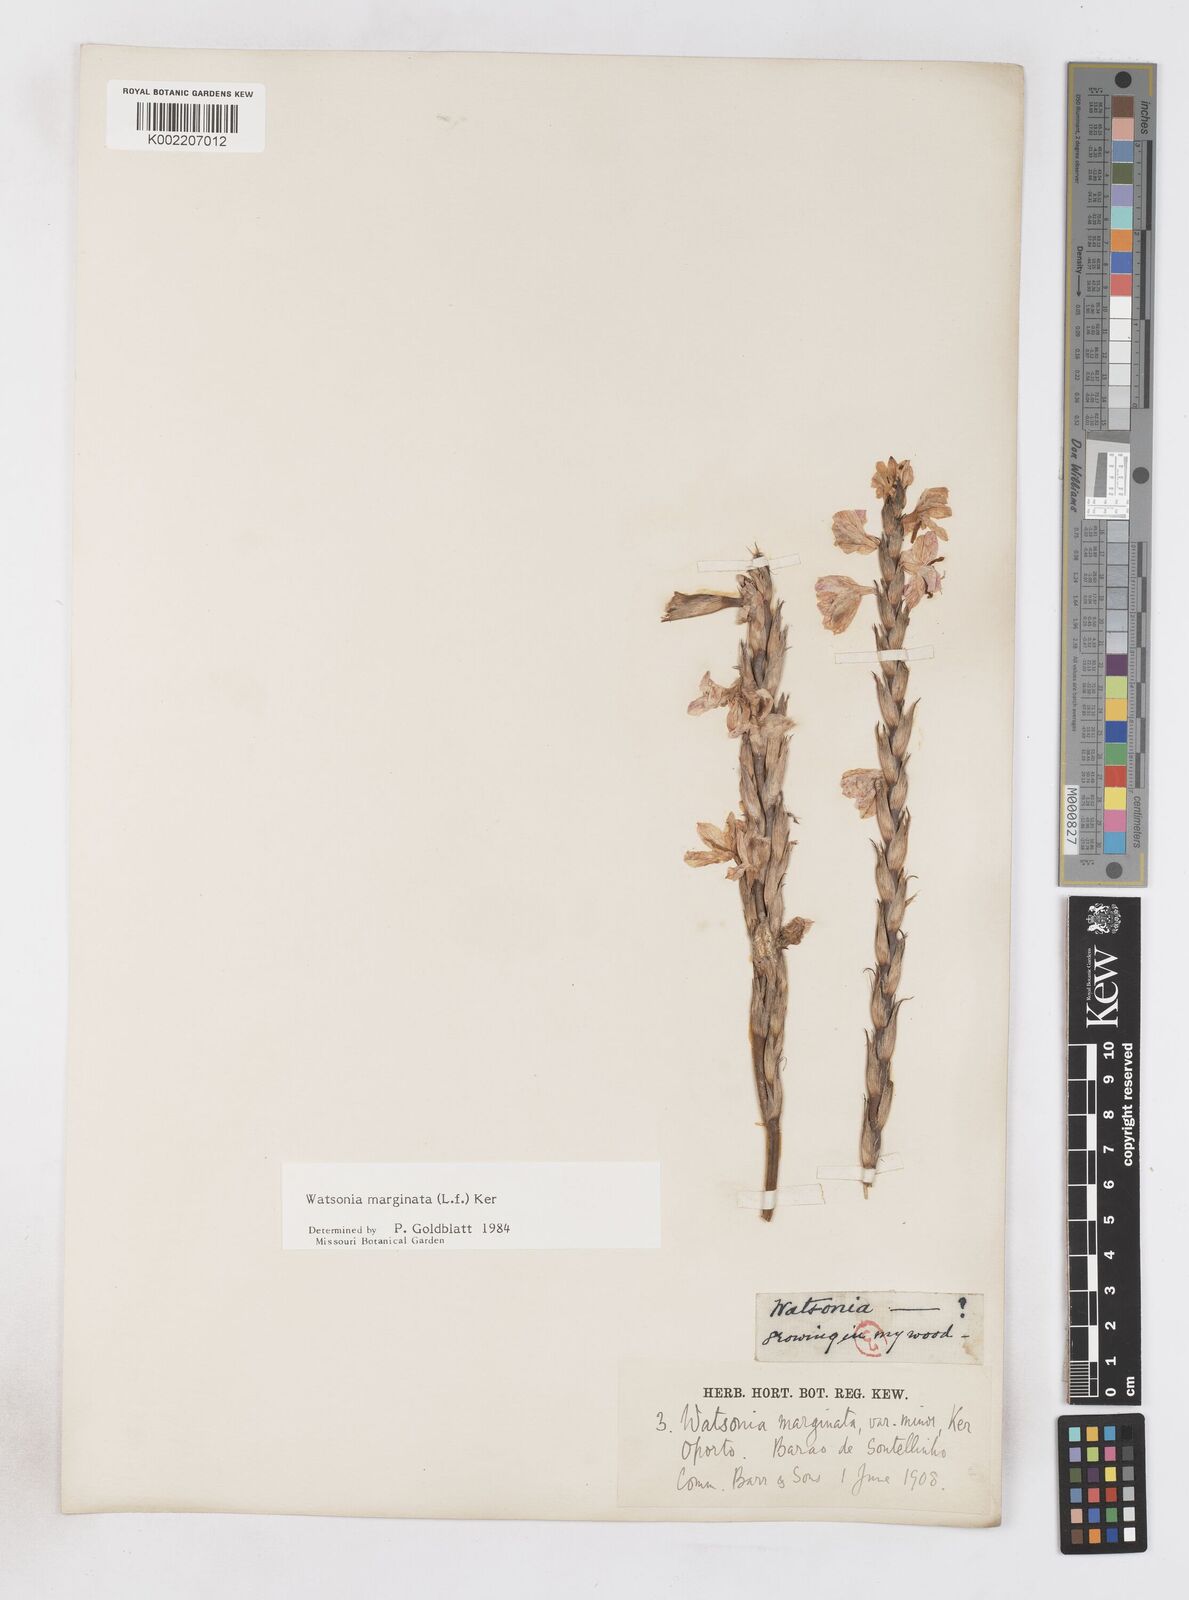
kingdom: Plantae
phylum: Tracheophyta
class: Liliopsida
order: Asparagales
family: Iridaceae
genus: Watsonia
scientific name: Watsonia marginata
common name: Fragrant bugle-lily
